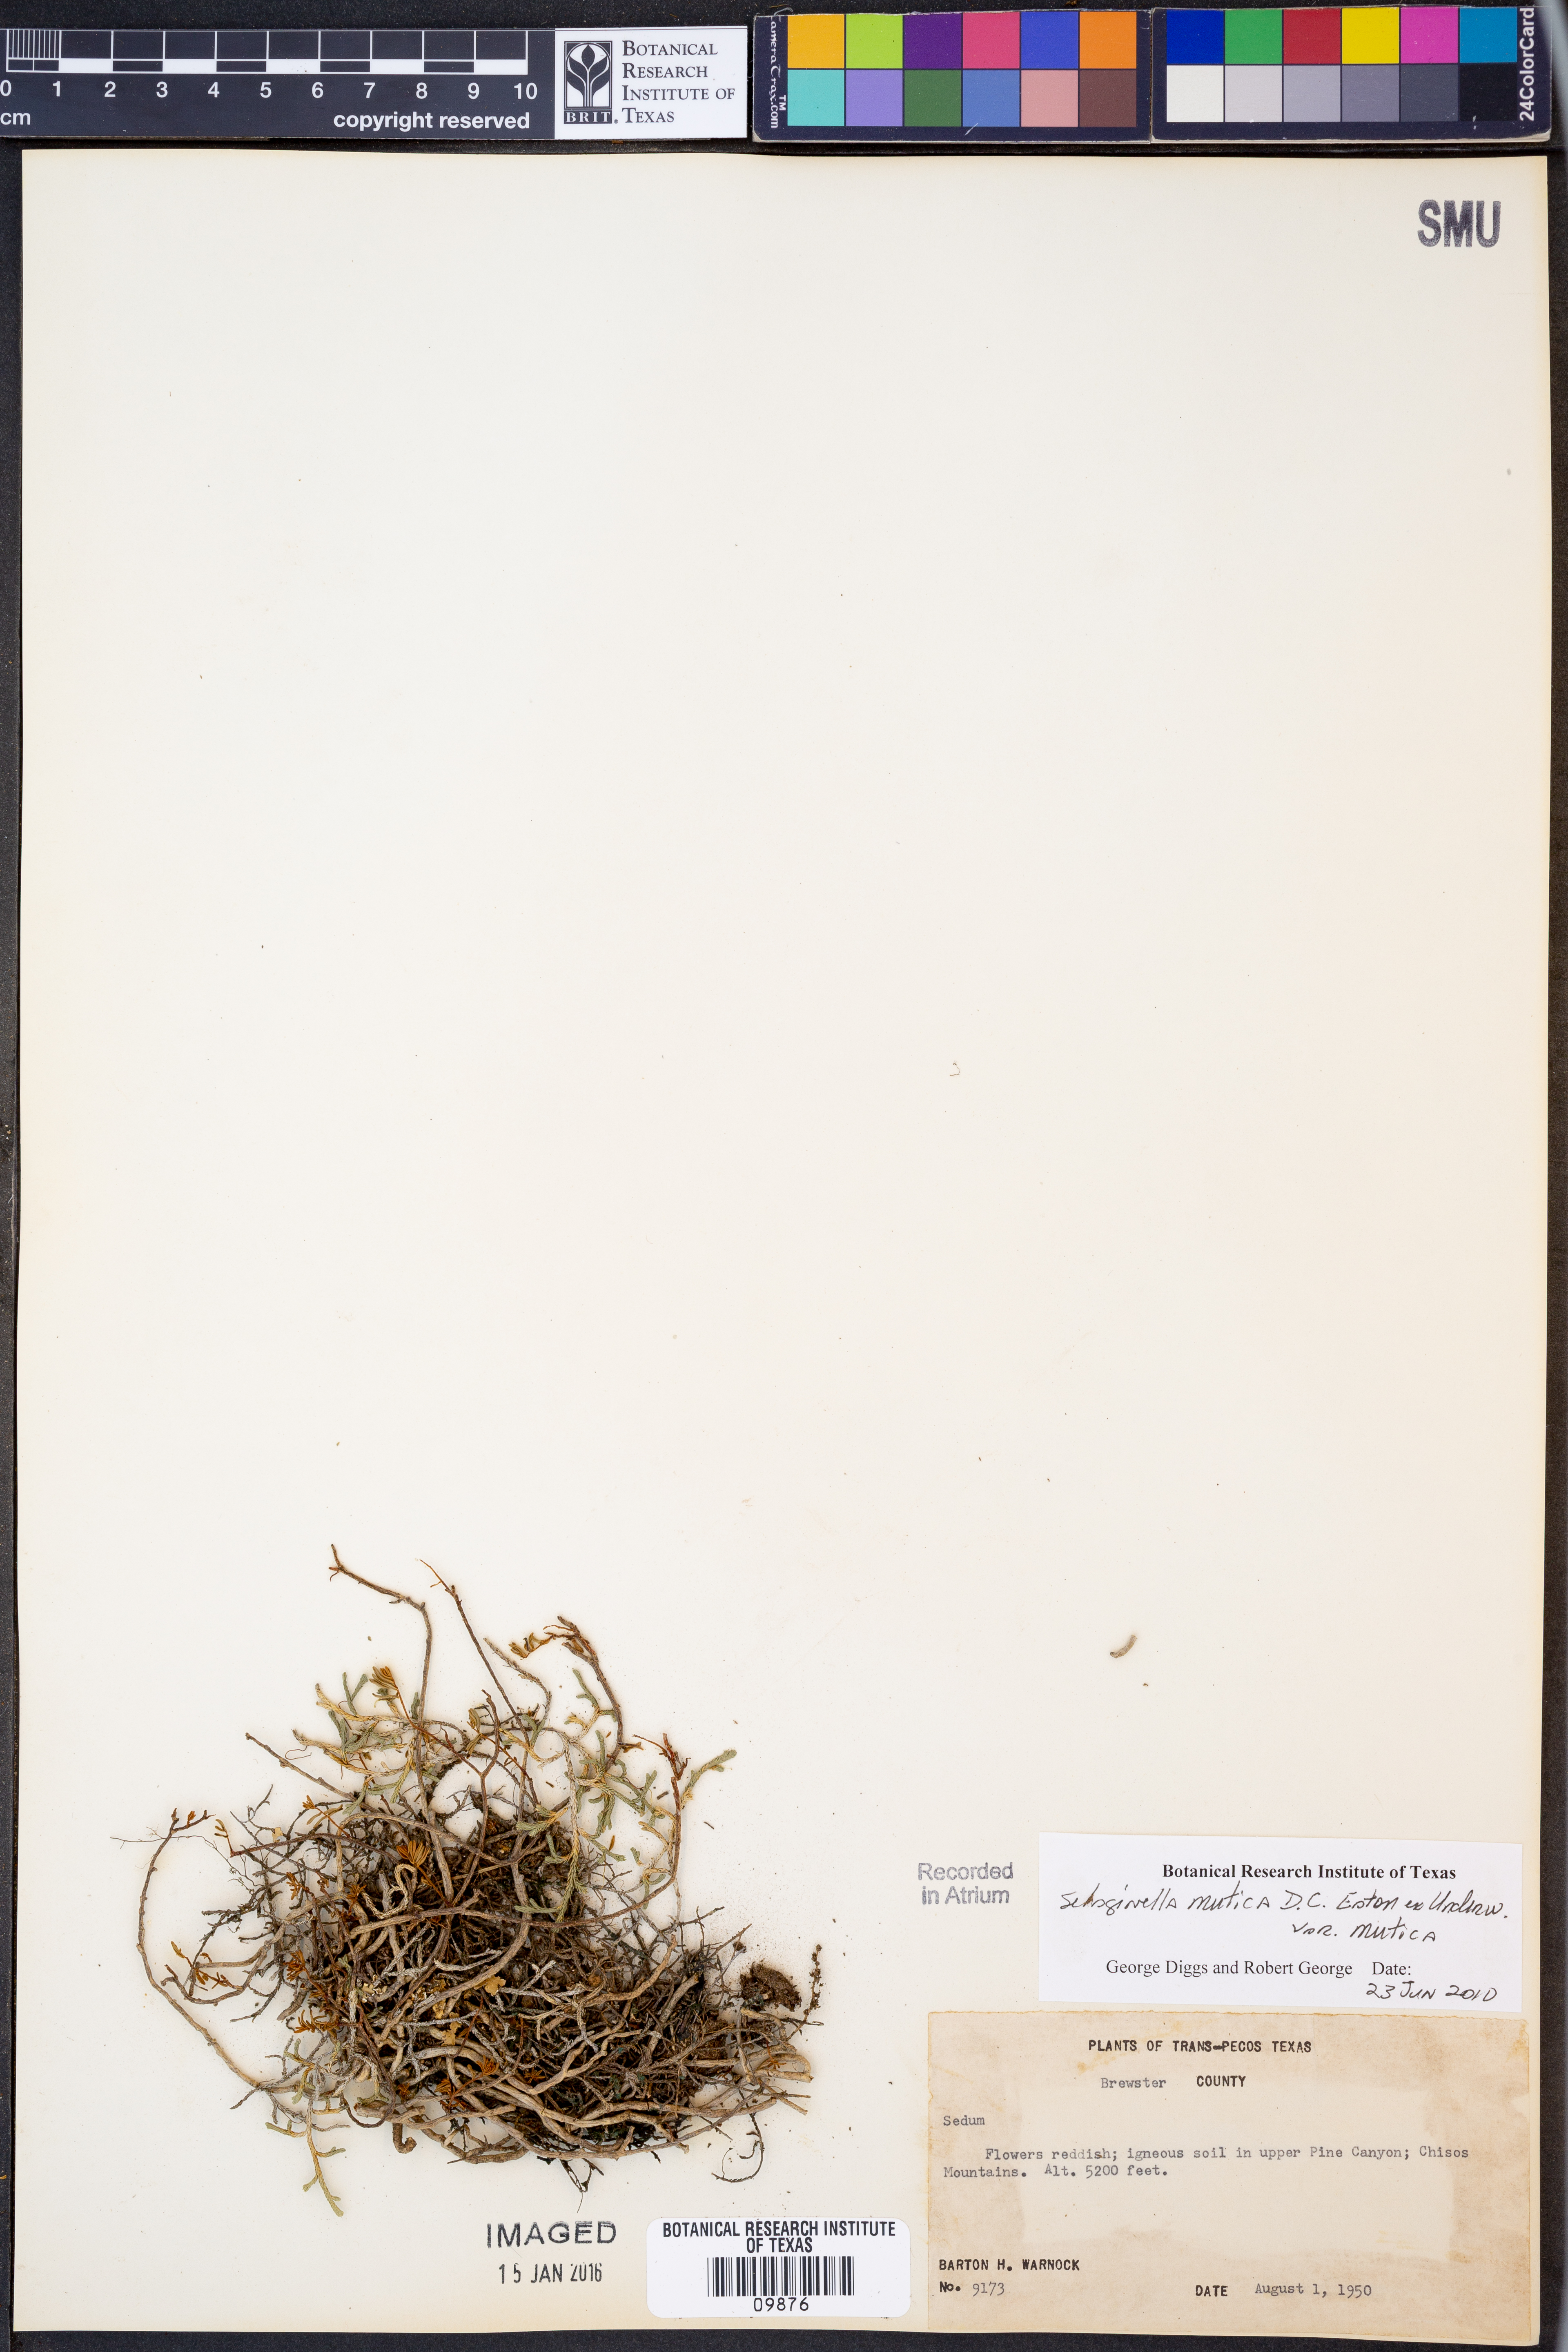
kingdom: Plantae
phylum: Tracheophyta
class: Lycopodiopsida
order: Selaginellales
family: Selaginellaceae
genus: Selaginella
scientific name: Selaginella mutica
